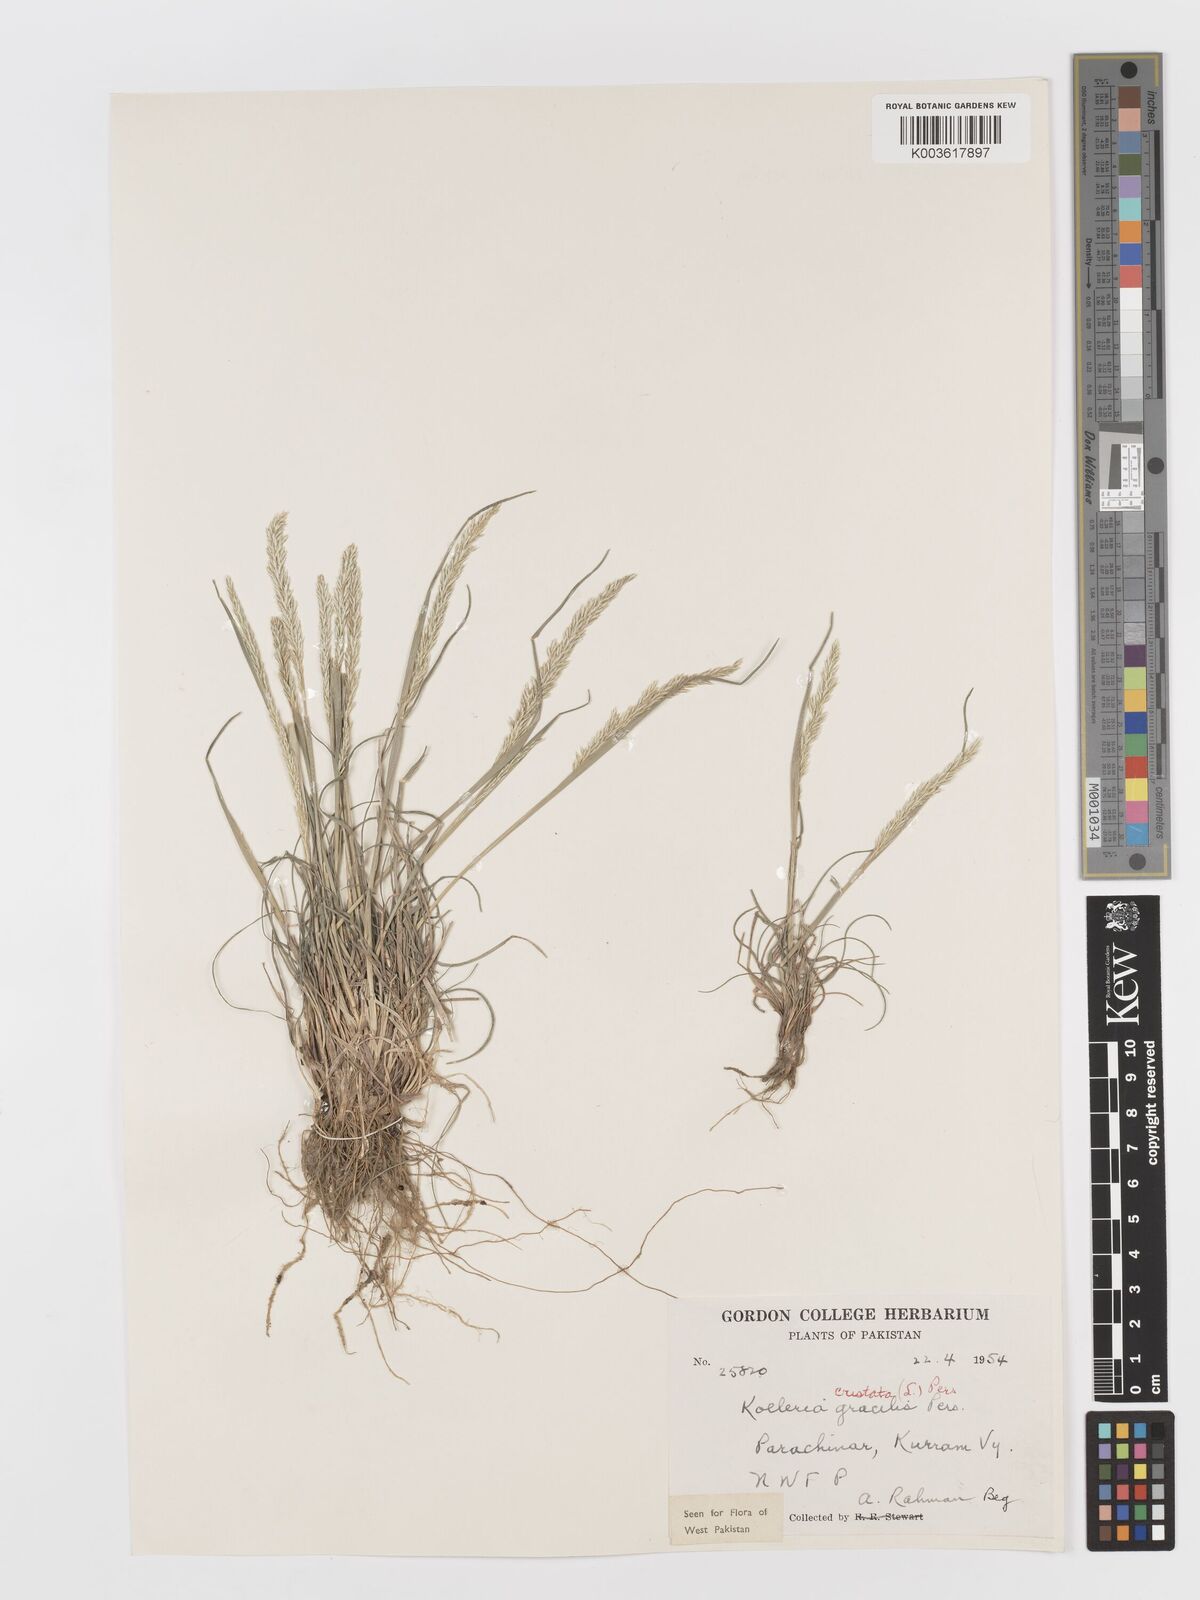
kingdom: Plantae
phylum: Tracheophyta
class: Liliopsida
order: Poales
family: Poaceae
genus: Koeleria
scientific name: Koeleria
